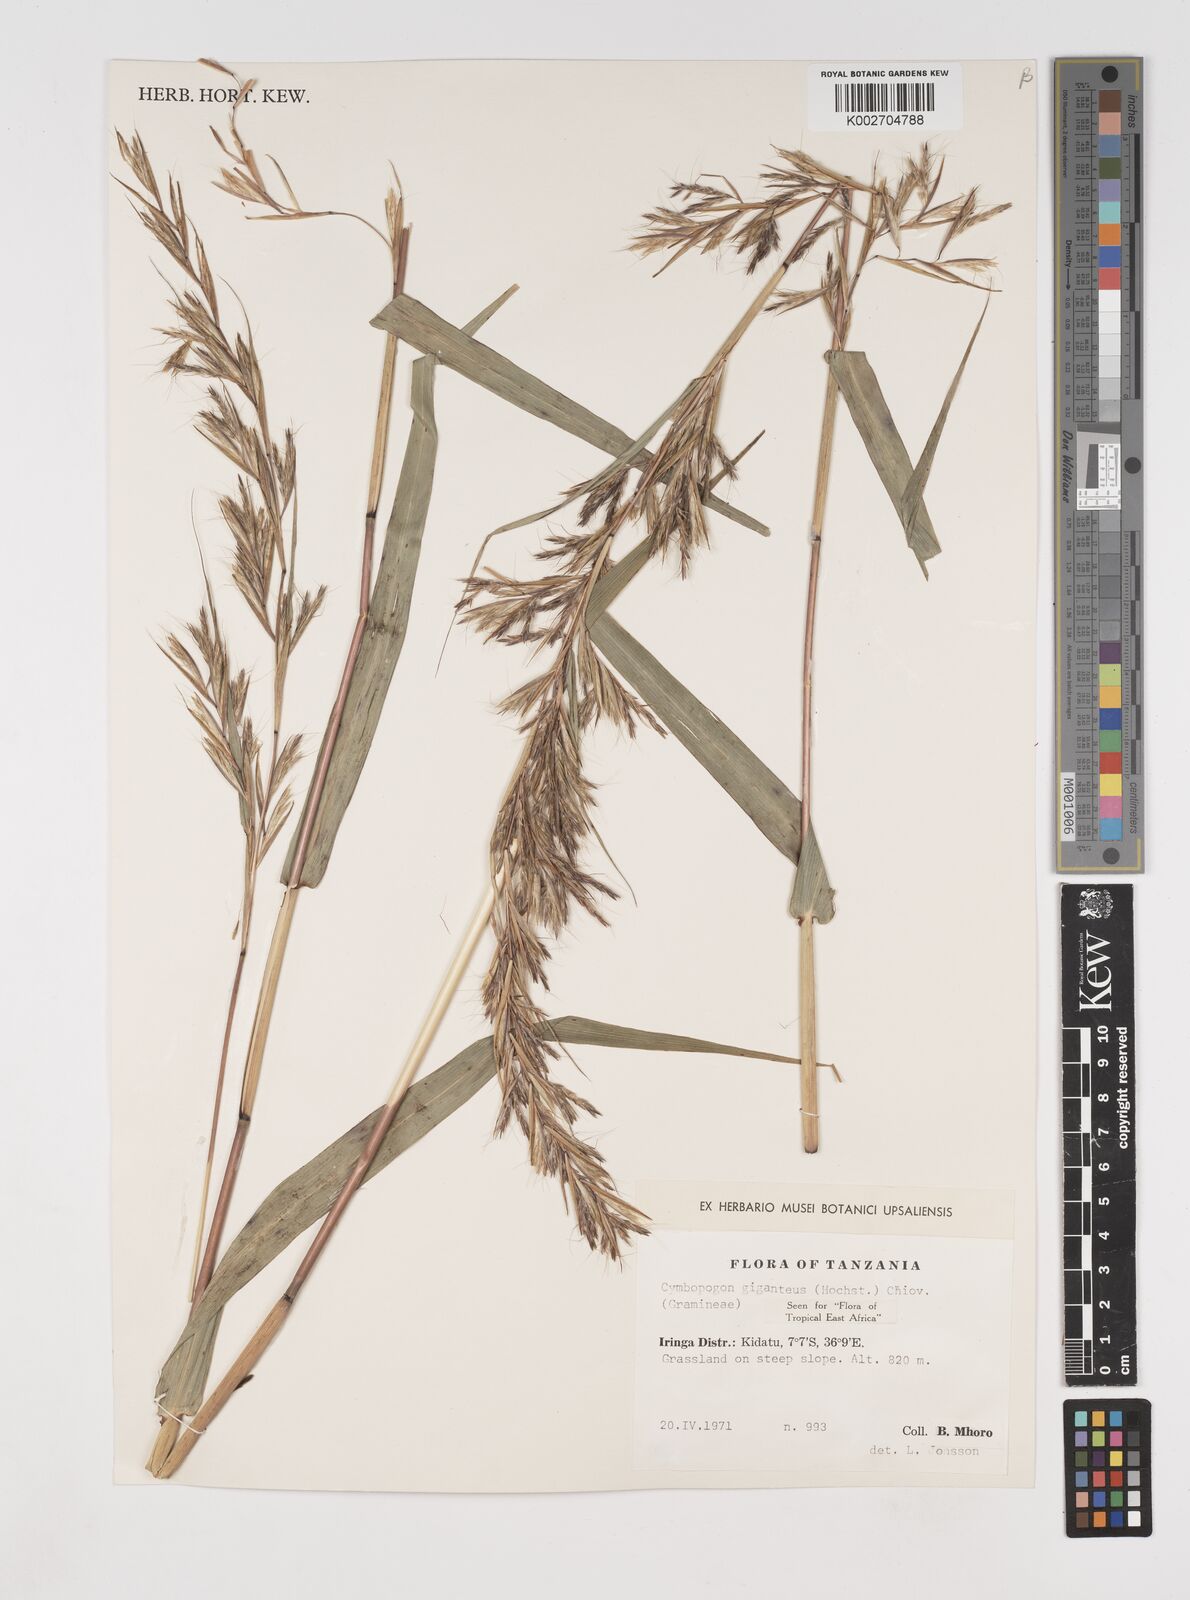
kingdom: Plantae
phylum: Tracheophyta
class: Liliopsida
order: Poales
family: Poaceae
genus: Cymbopogon
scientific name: Cymbopogon giganteus
